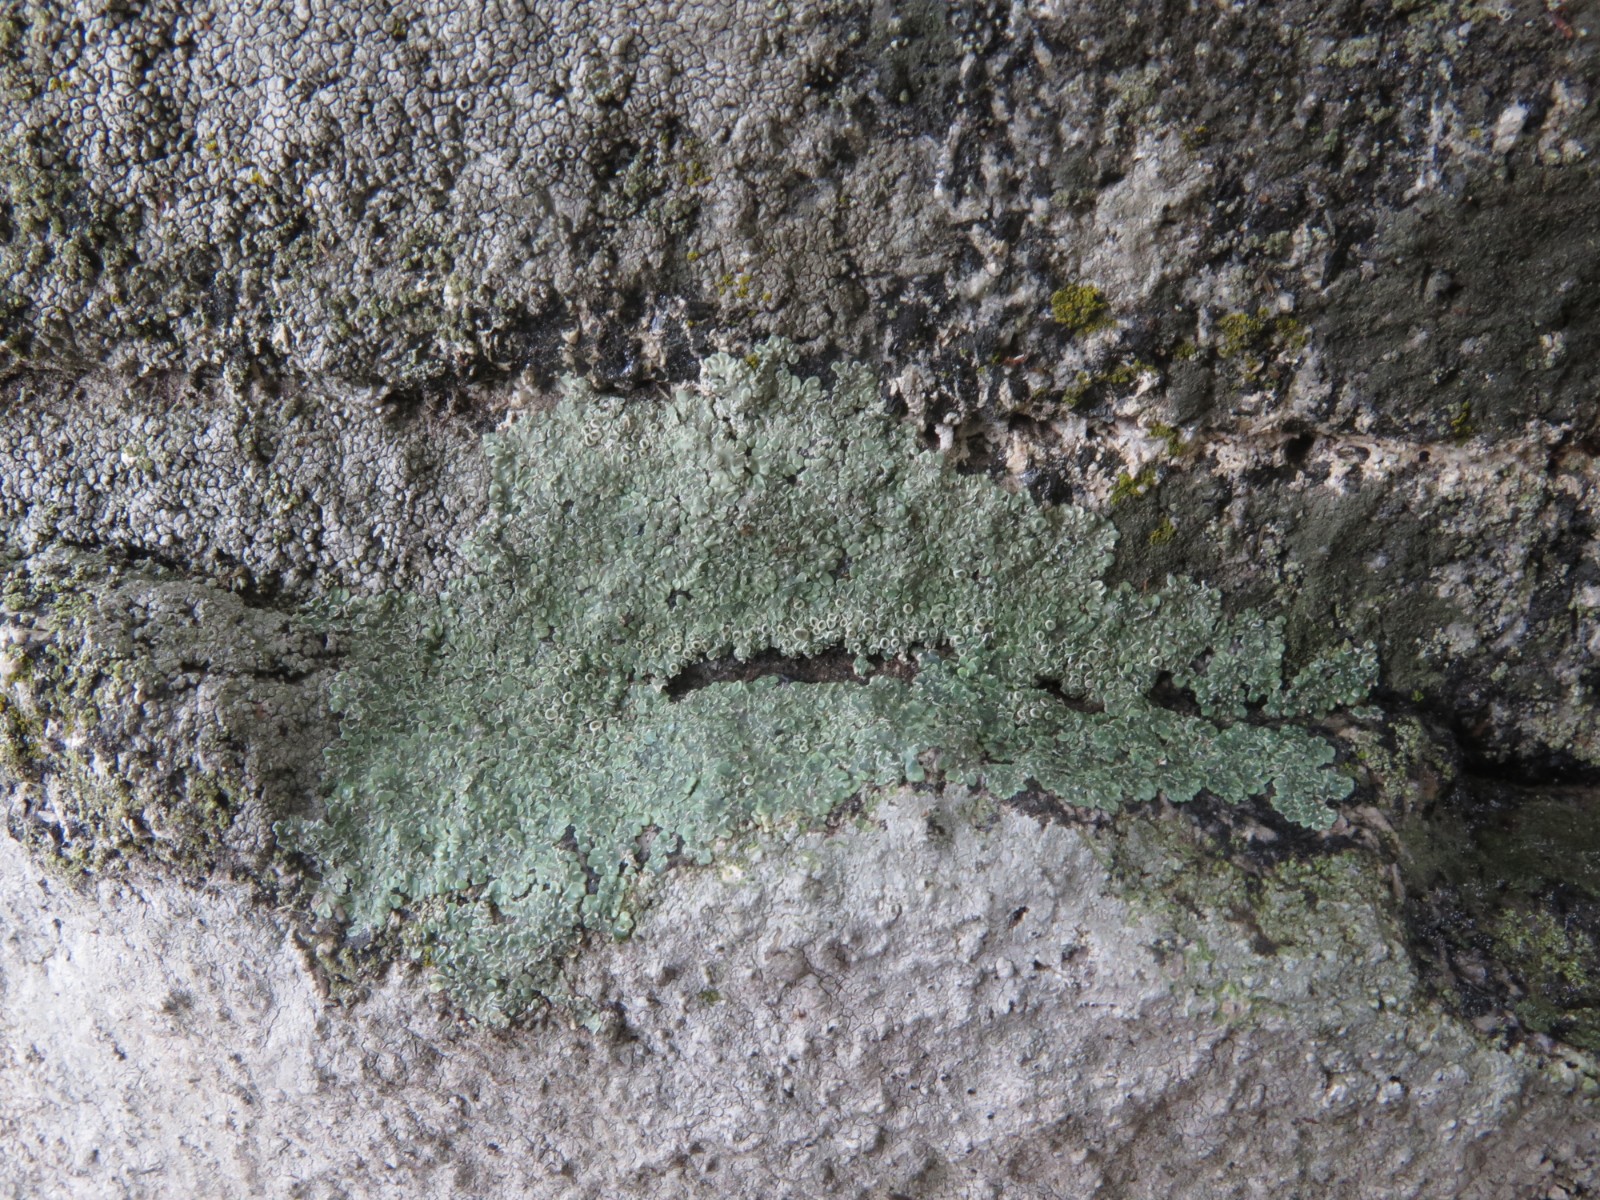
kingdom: Fungi
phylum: Ascomycota
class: Lecanoromycetes
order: Lecanorales
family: Lecanoraceae
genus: Protoparmeliopsis
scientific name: Protoparmeliopsis muralis
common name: randfliget kantskivelav
